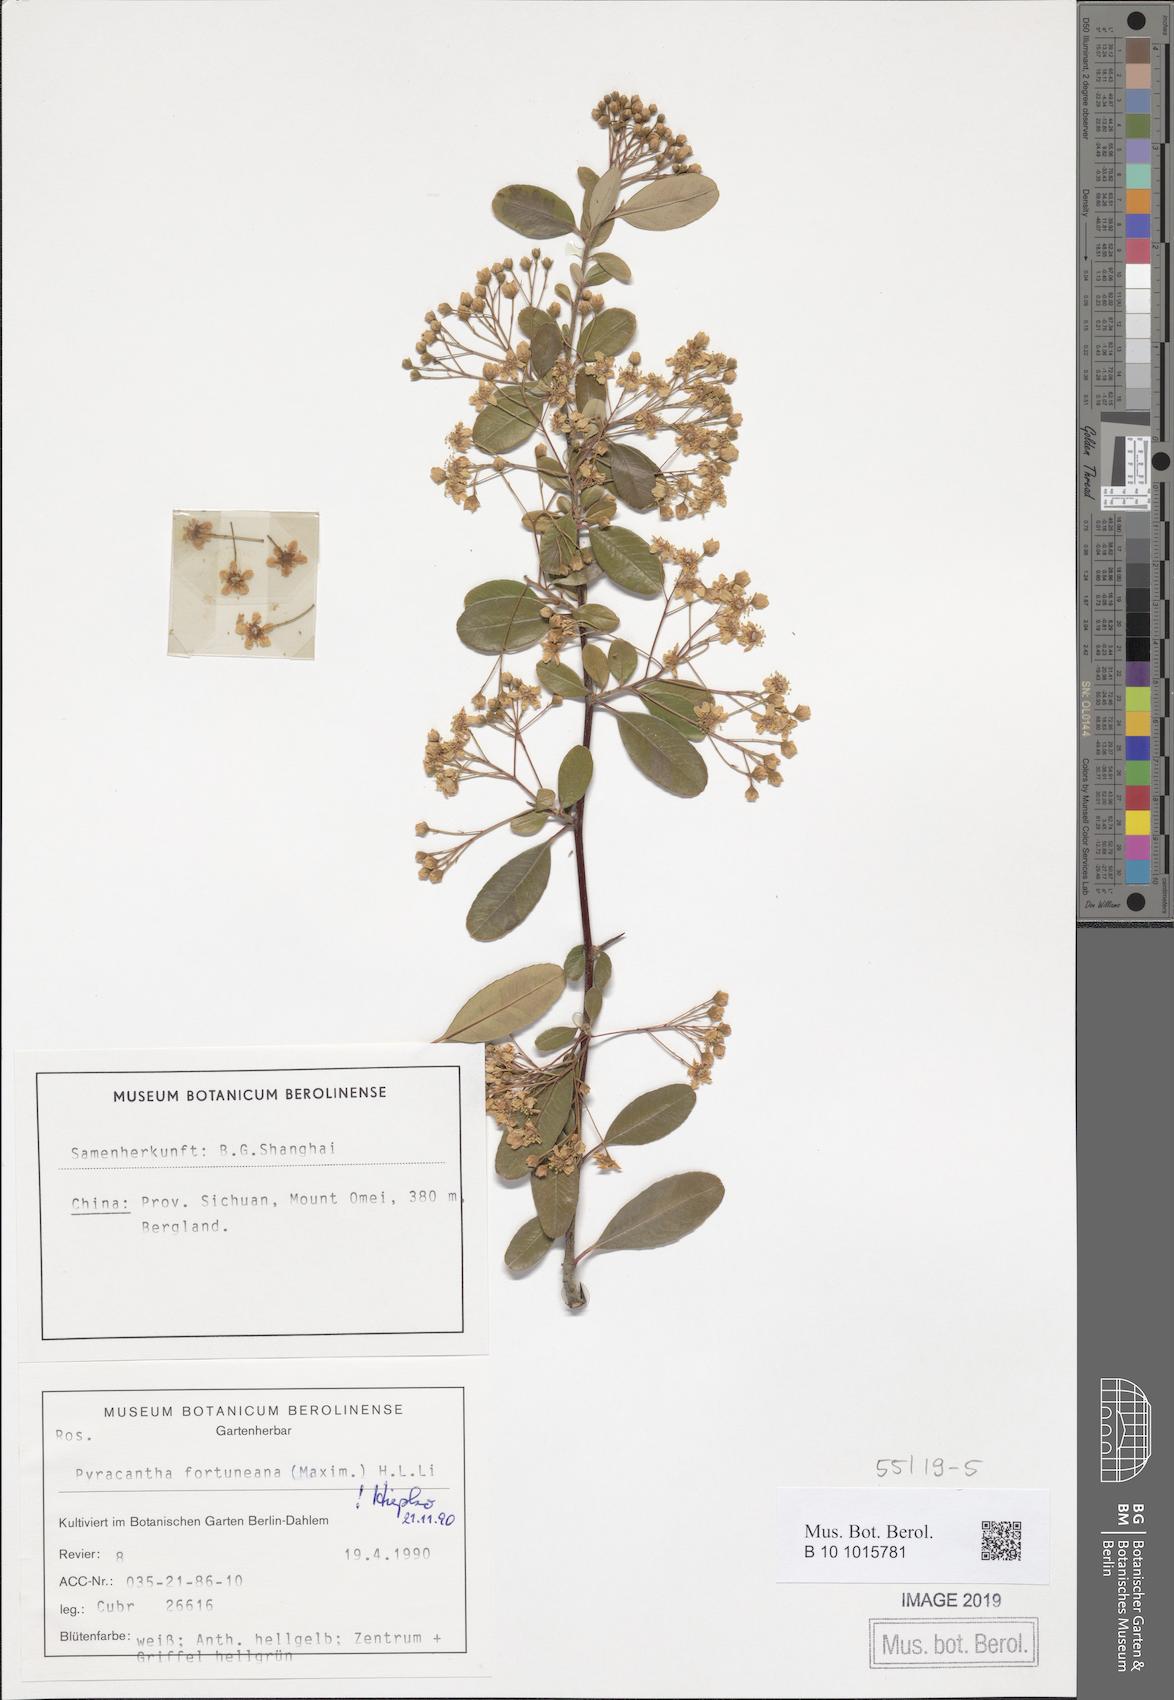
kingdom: Plantae
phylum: Tracheophyta
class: Magnoliopsida
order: Rosales
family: Rosaceae
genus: Pyracantha
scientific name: Pyracantha fortuneana
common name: Chinese firethorn
